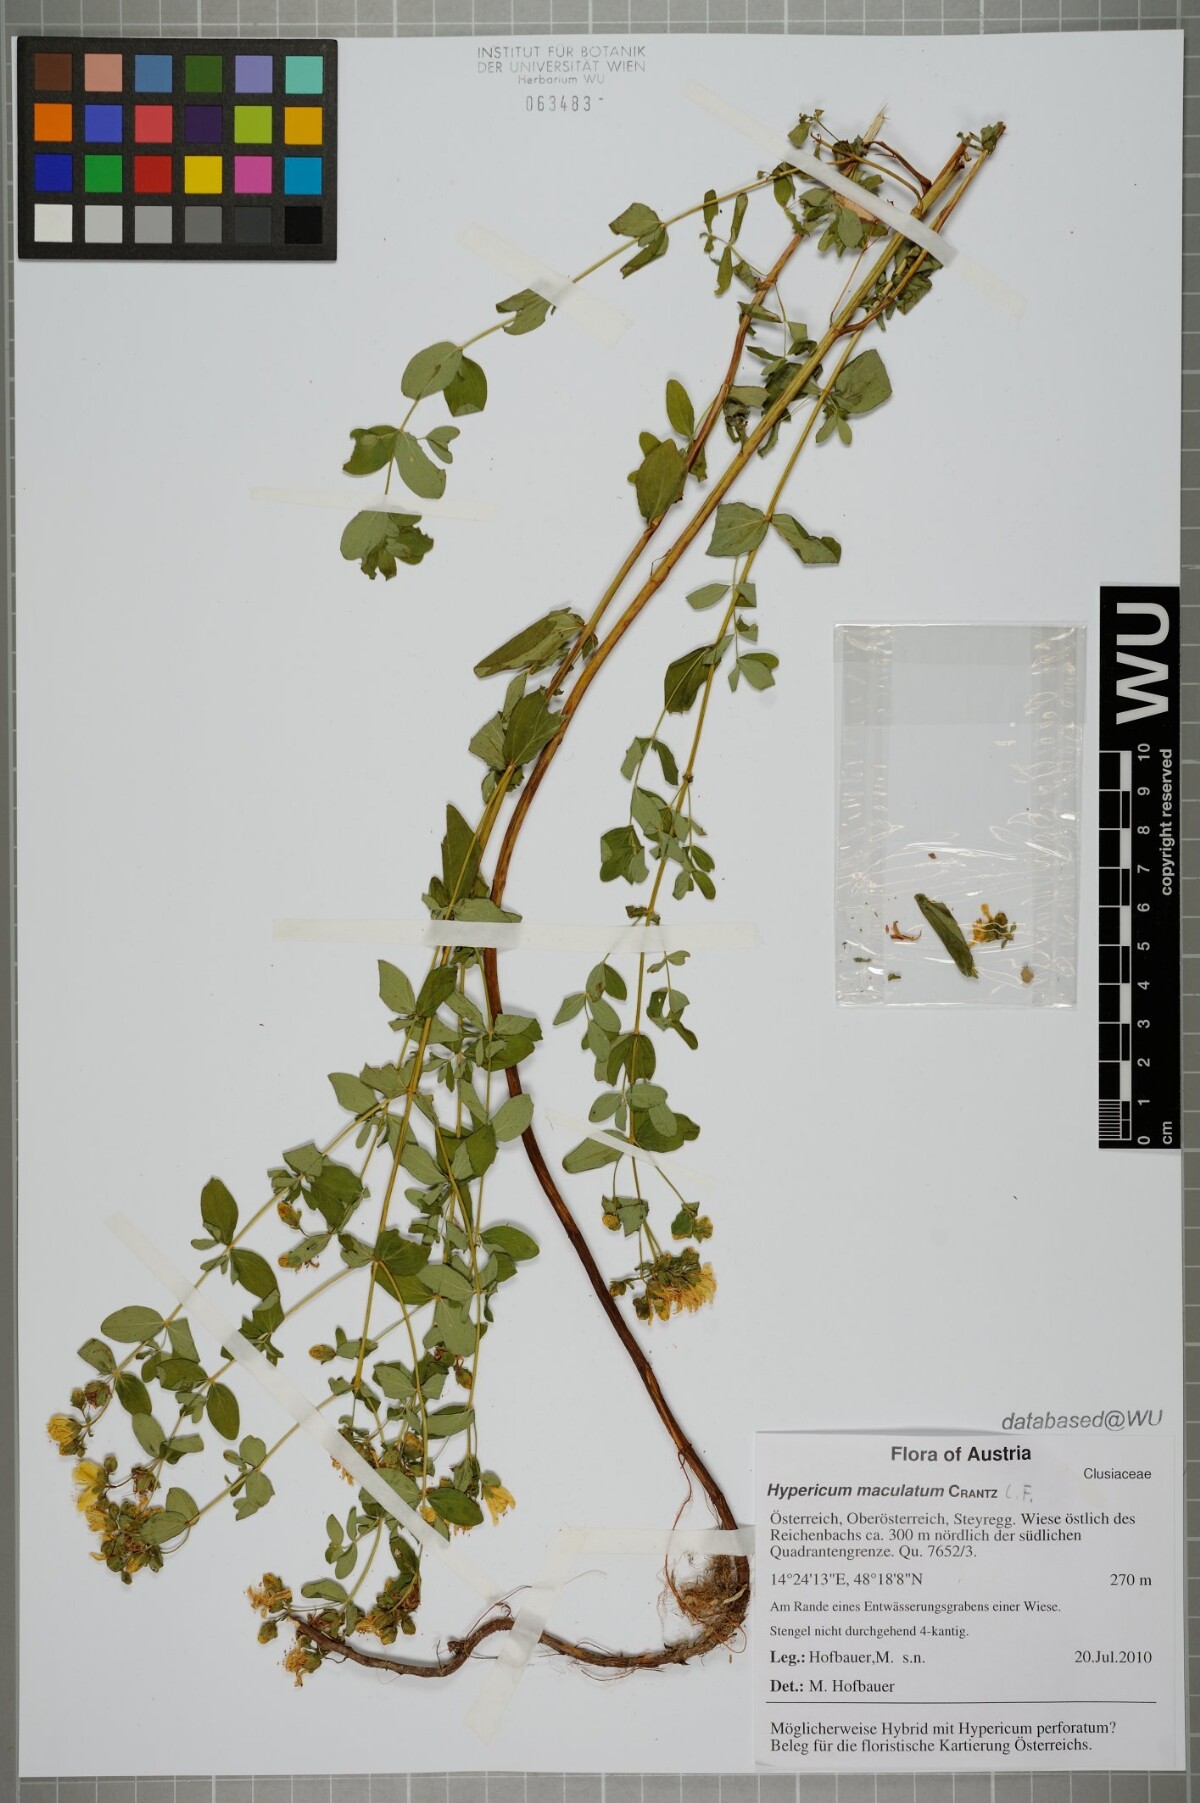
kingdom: Plantae
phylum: Tracheophyta
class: Magnoliopsida
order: Malpighiales
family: Hypericaceae
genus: Hypericum
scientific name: Hypericum maculatum
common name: Imperforate st. john's-wort
